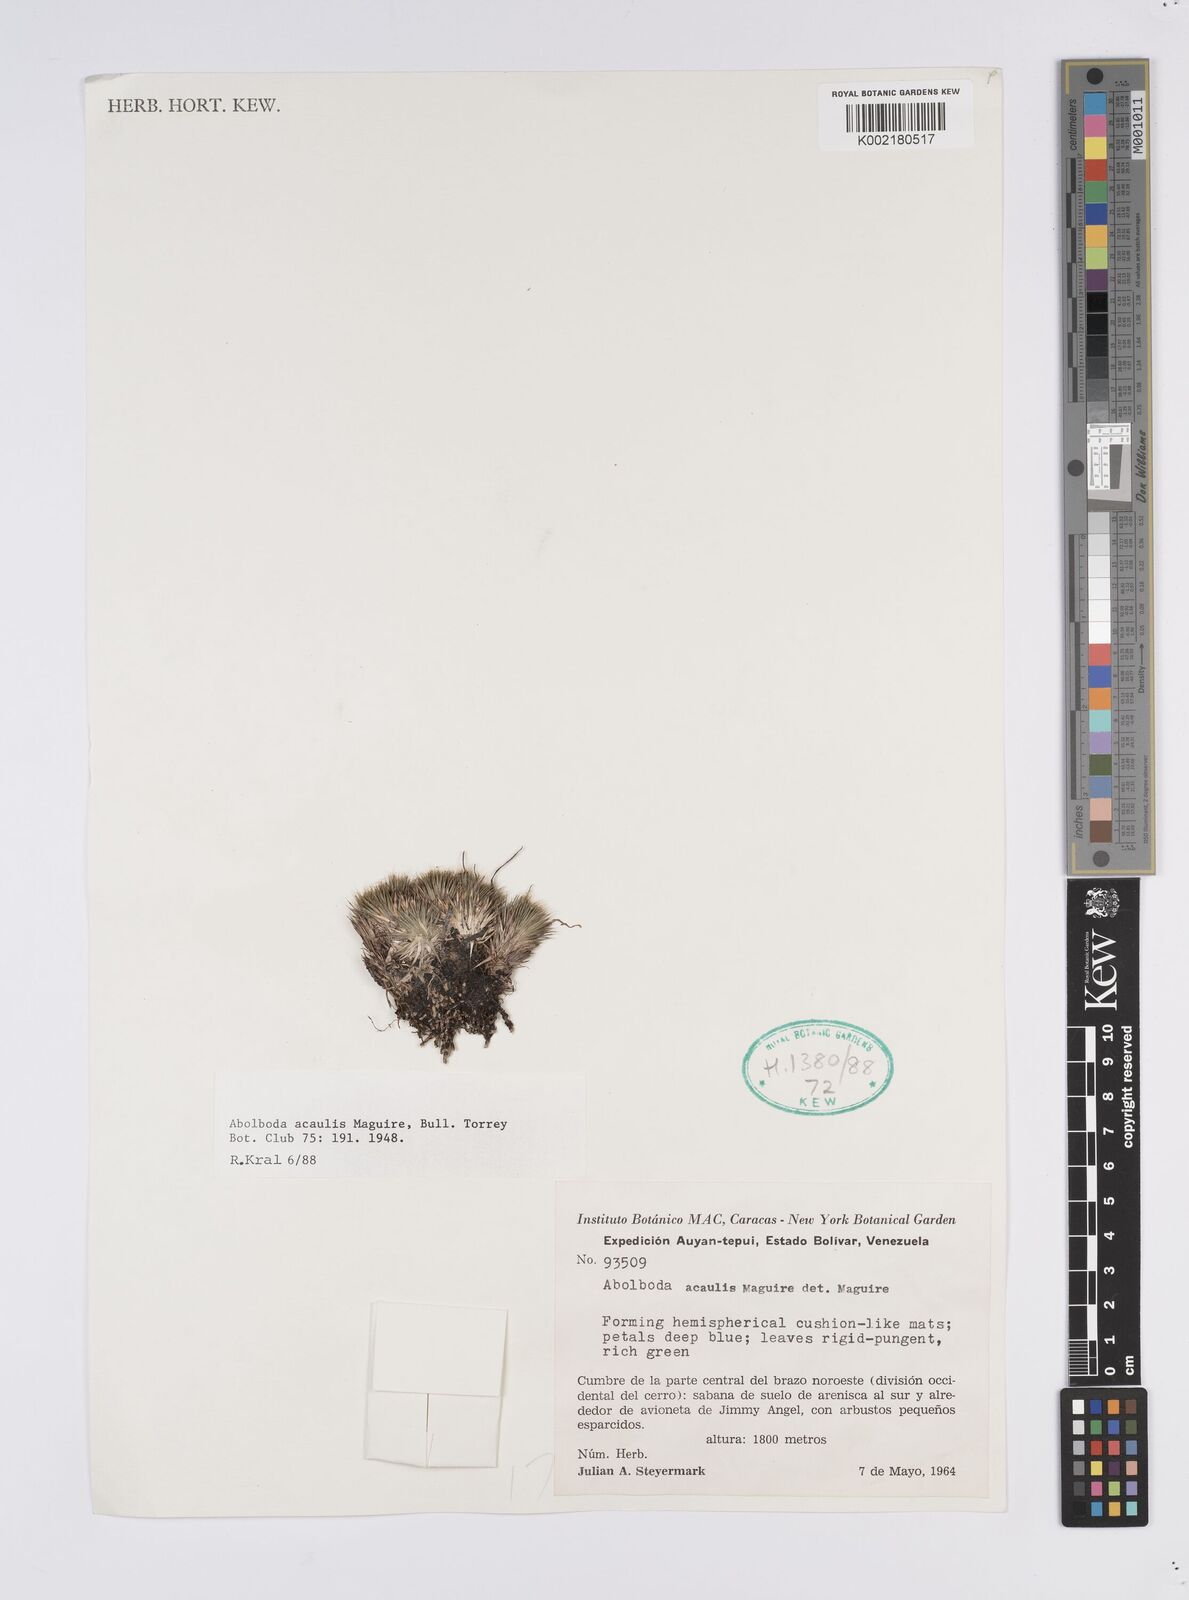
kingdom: Plantae
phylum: Tracheophyta
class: Liliopsida
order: Poales
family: Xyridaceae
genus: Abolboda
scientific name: Abolboda acaulis
